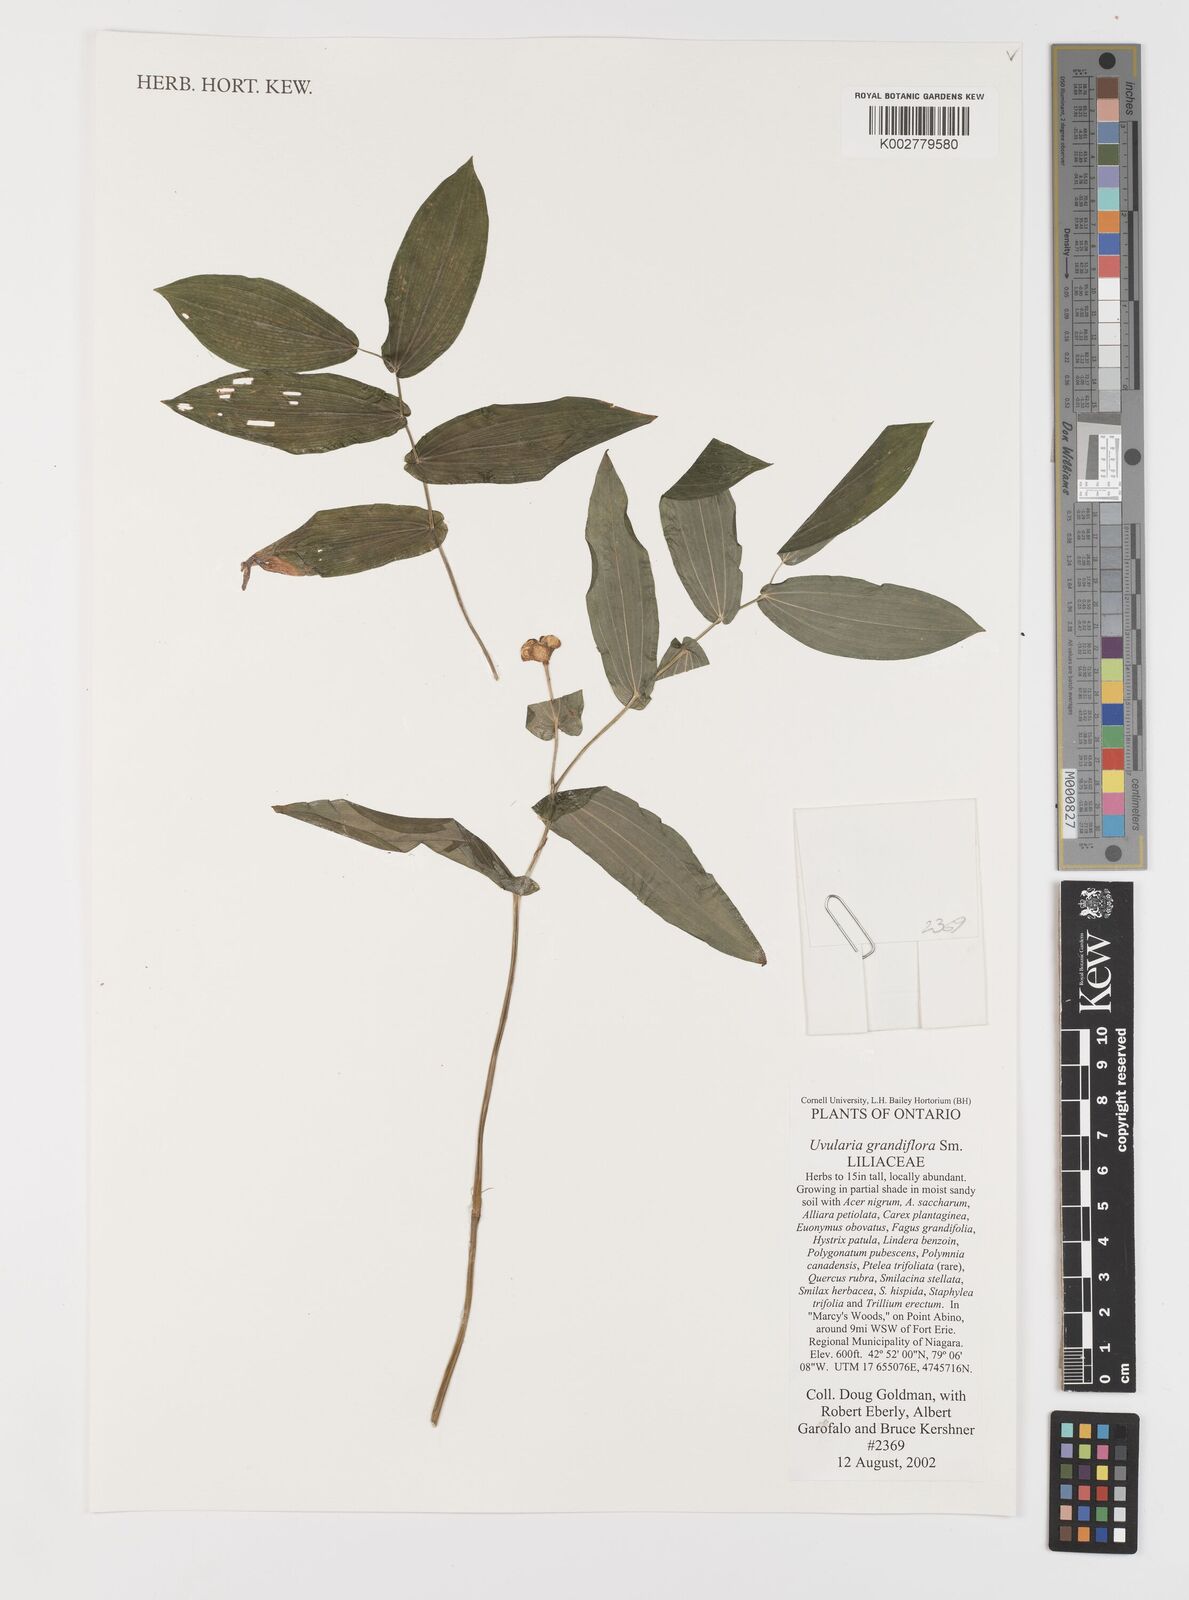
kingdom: Plantae
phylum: Tracheophyta
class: Liliopsida
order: Liliales
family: Colchicaceae
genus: Uvularia
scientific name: Uvularia grandiflora
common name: Bellwort
